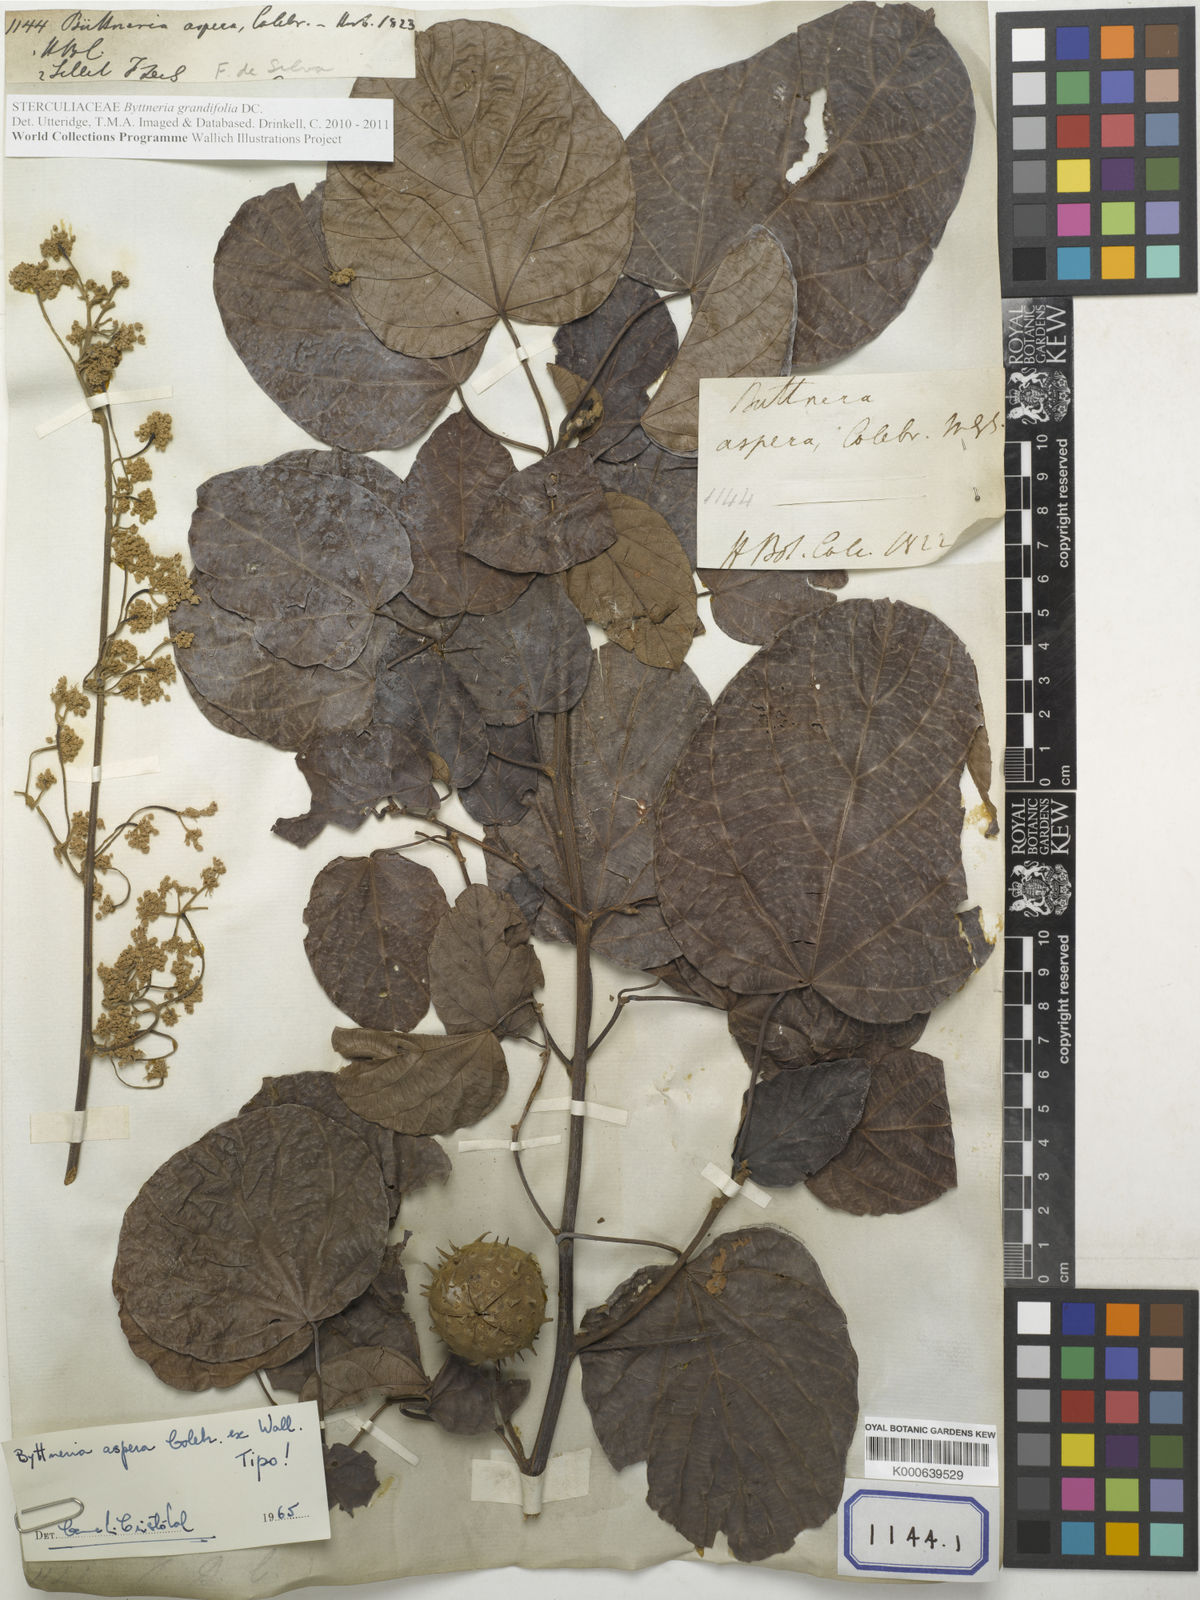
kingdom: Plantae
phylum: Tracheophyta
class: Magnoliopsida
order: Malvales
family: Malvaceae
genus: Byttneria
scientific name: Byttneria
